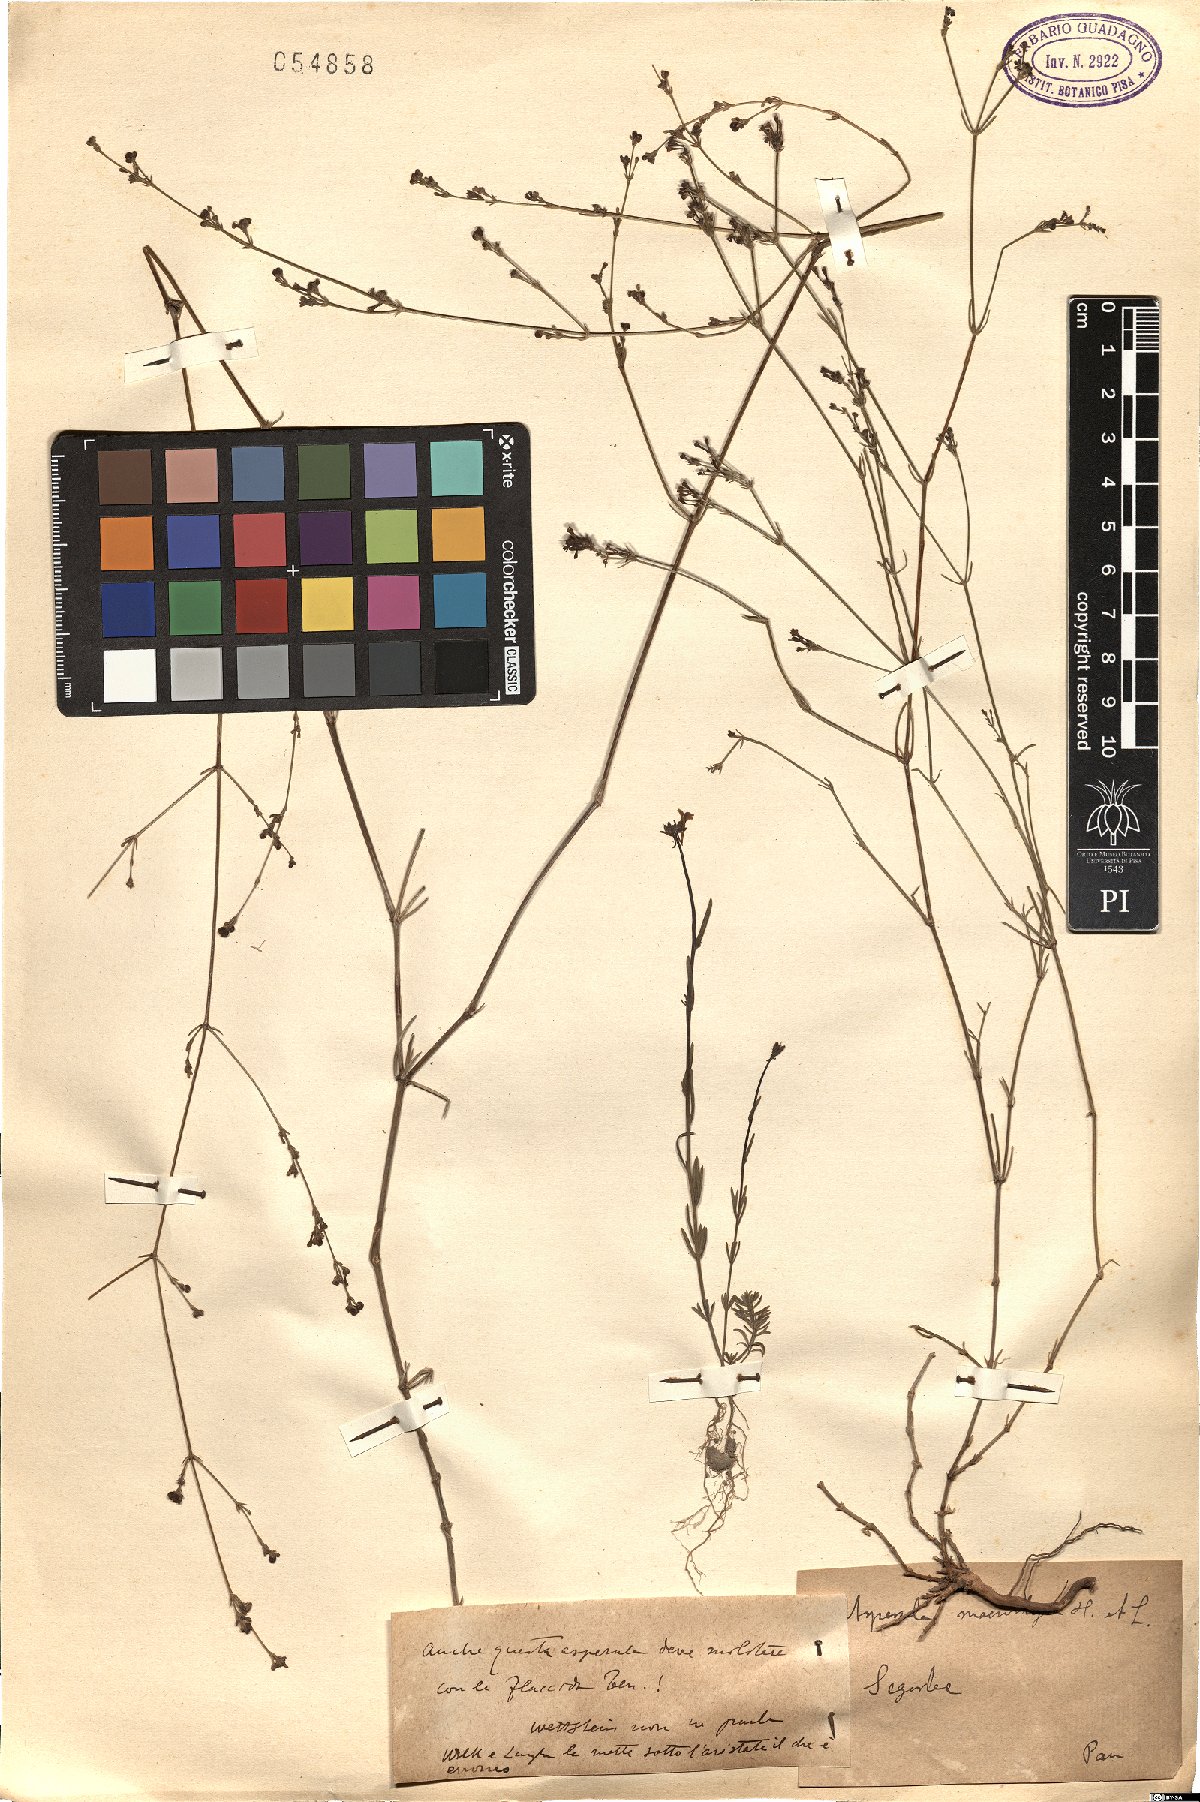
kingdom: Plantae
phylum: Tracheophyta
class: Magnoliopsida
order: Gentianales
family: Rubiaceae
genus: Asperula
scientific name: Asperula
